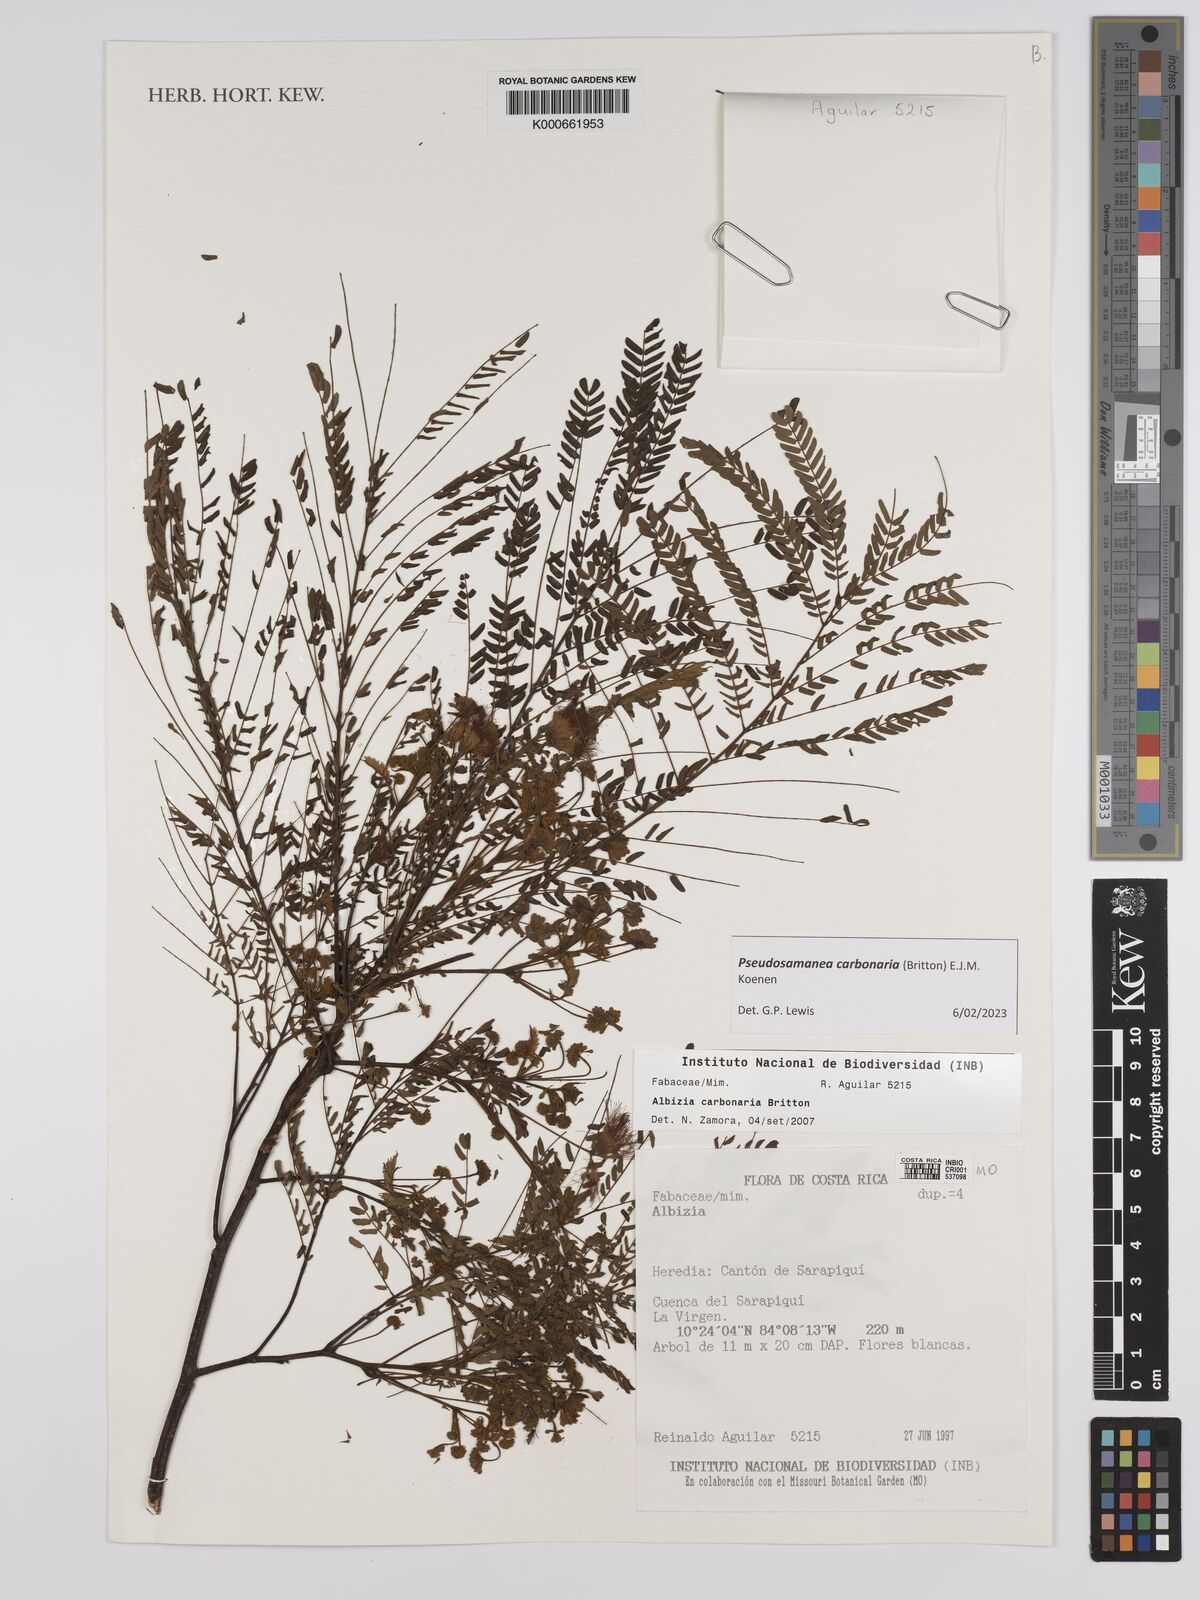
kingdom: Plantae
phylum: Tracheophyta
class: Magnoliopsida
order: Fabales
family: Fabaceae
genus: Albizia
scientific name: Albizia carbonaria
